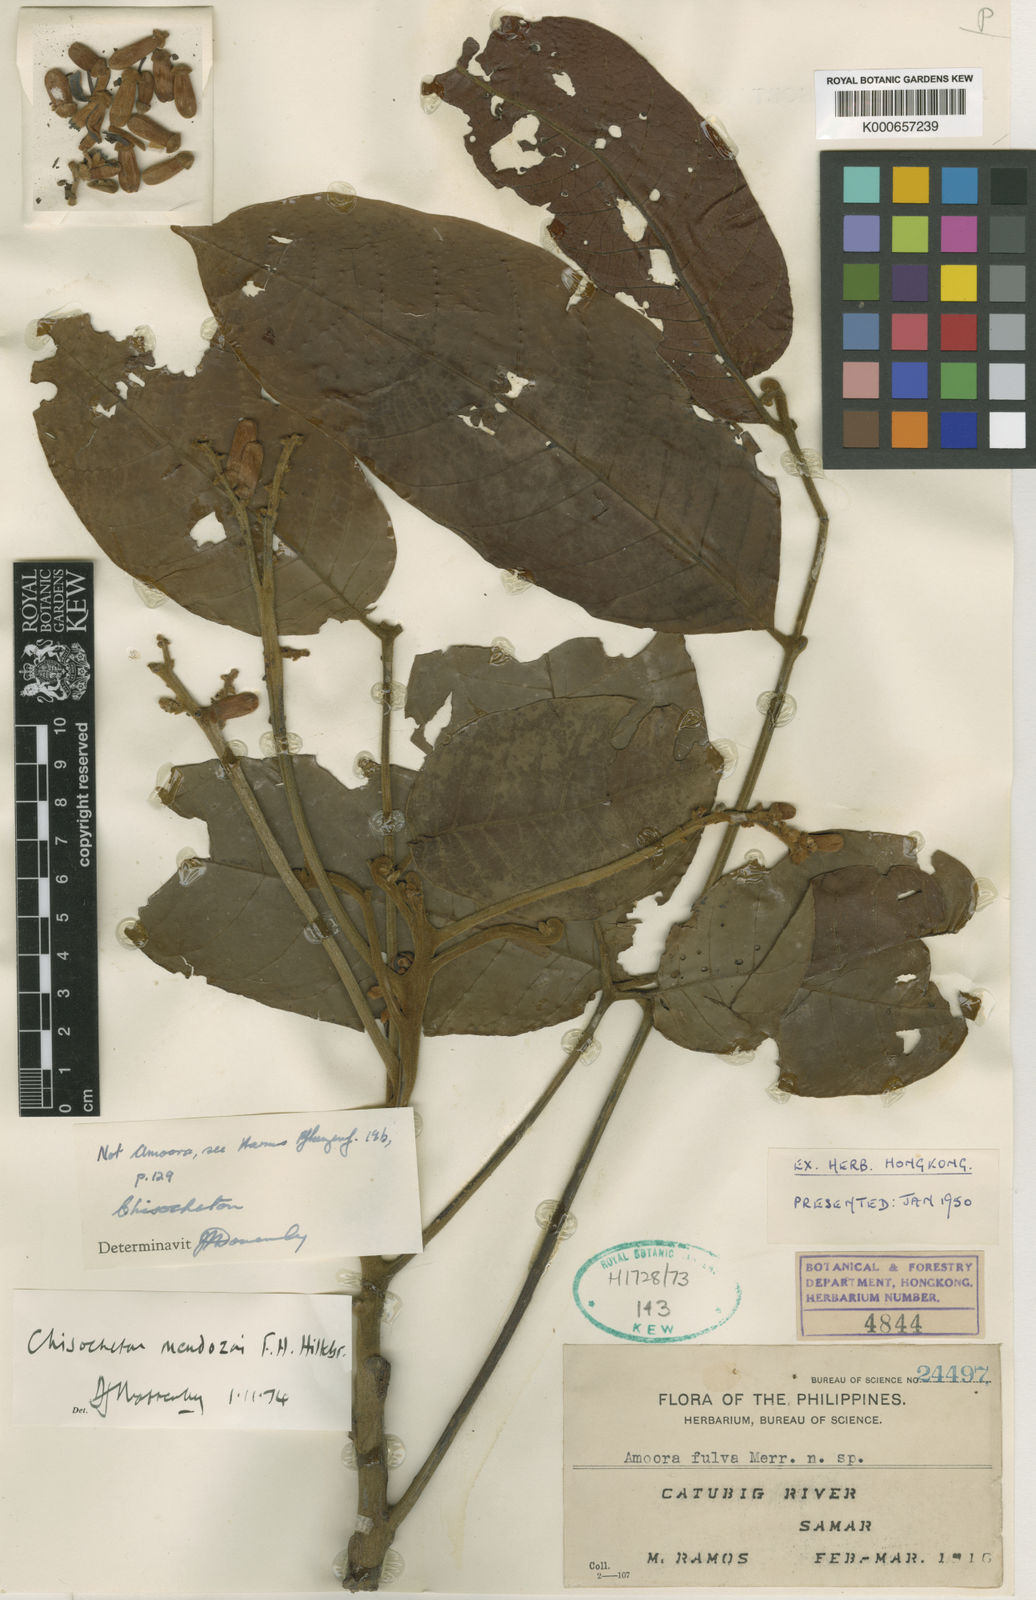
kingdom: Plantae
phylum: Tracheophyta
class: Magnoliopsida
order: Sapindales
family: Meliaceae
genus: Chisocheton
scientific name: Chisocheton mendozai
